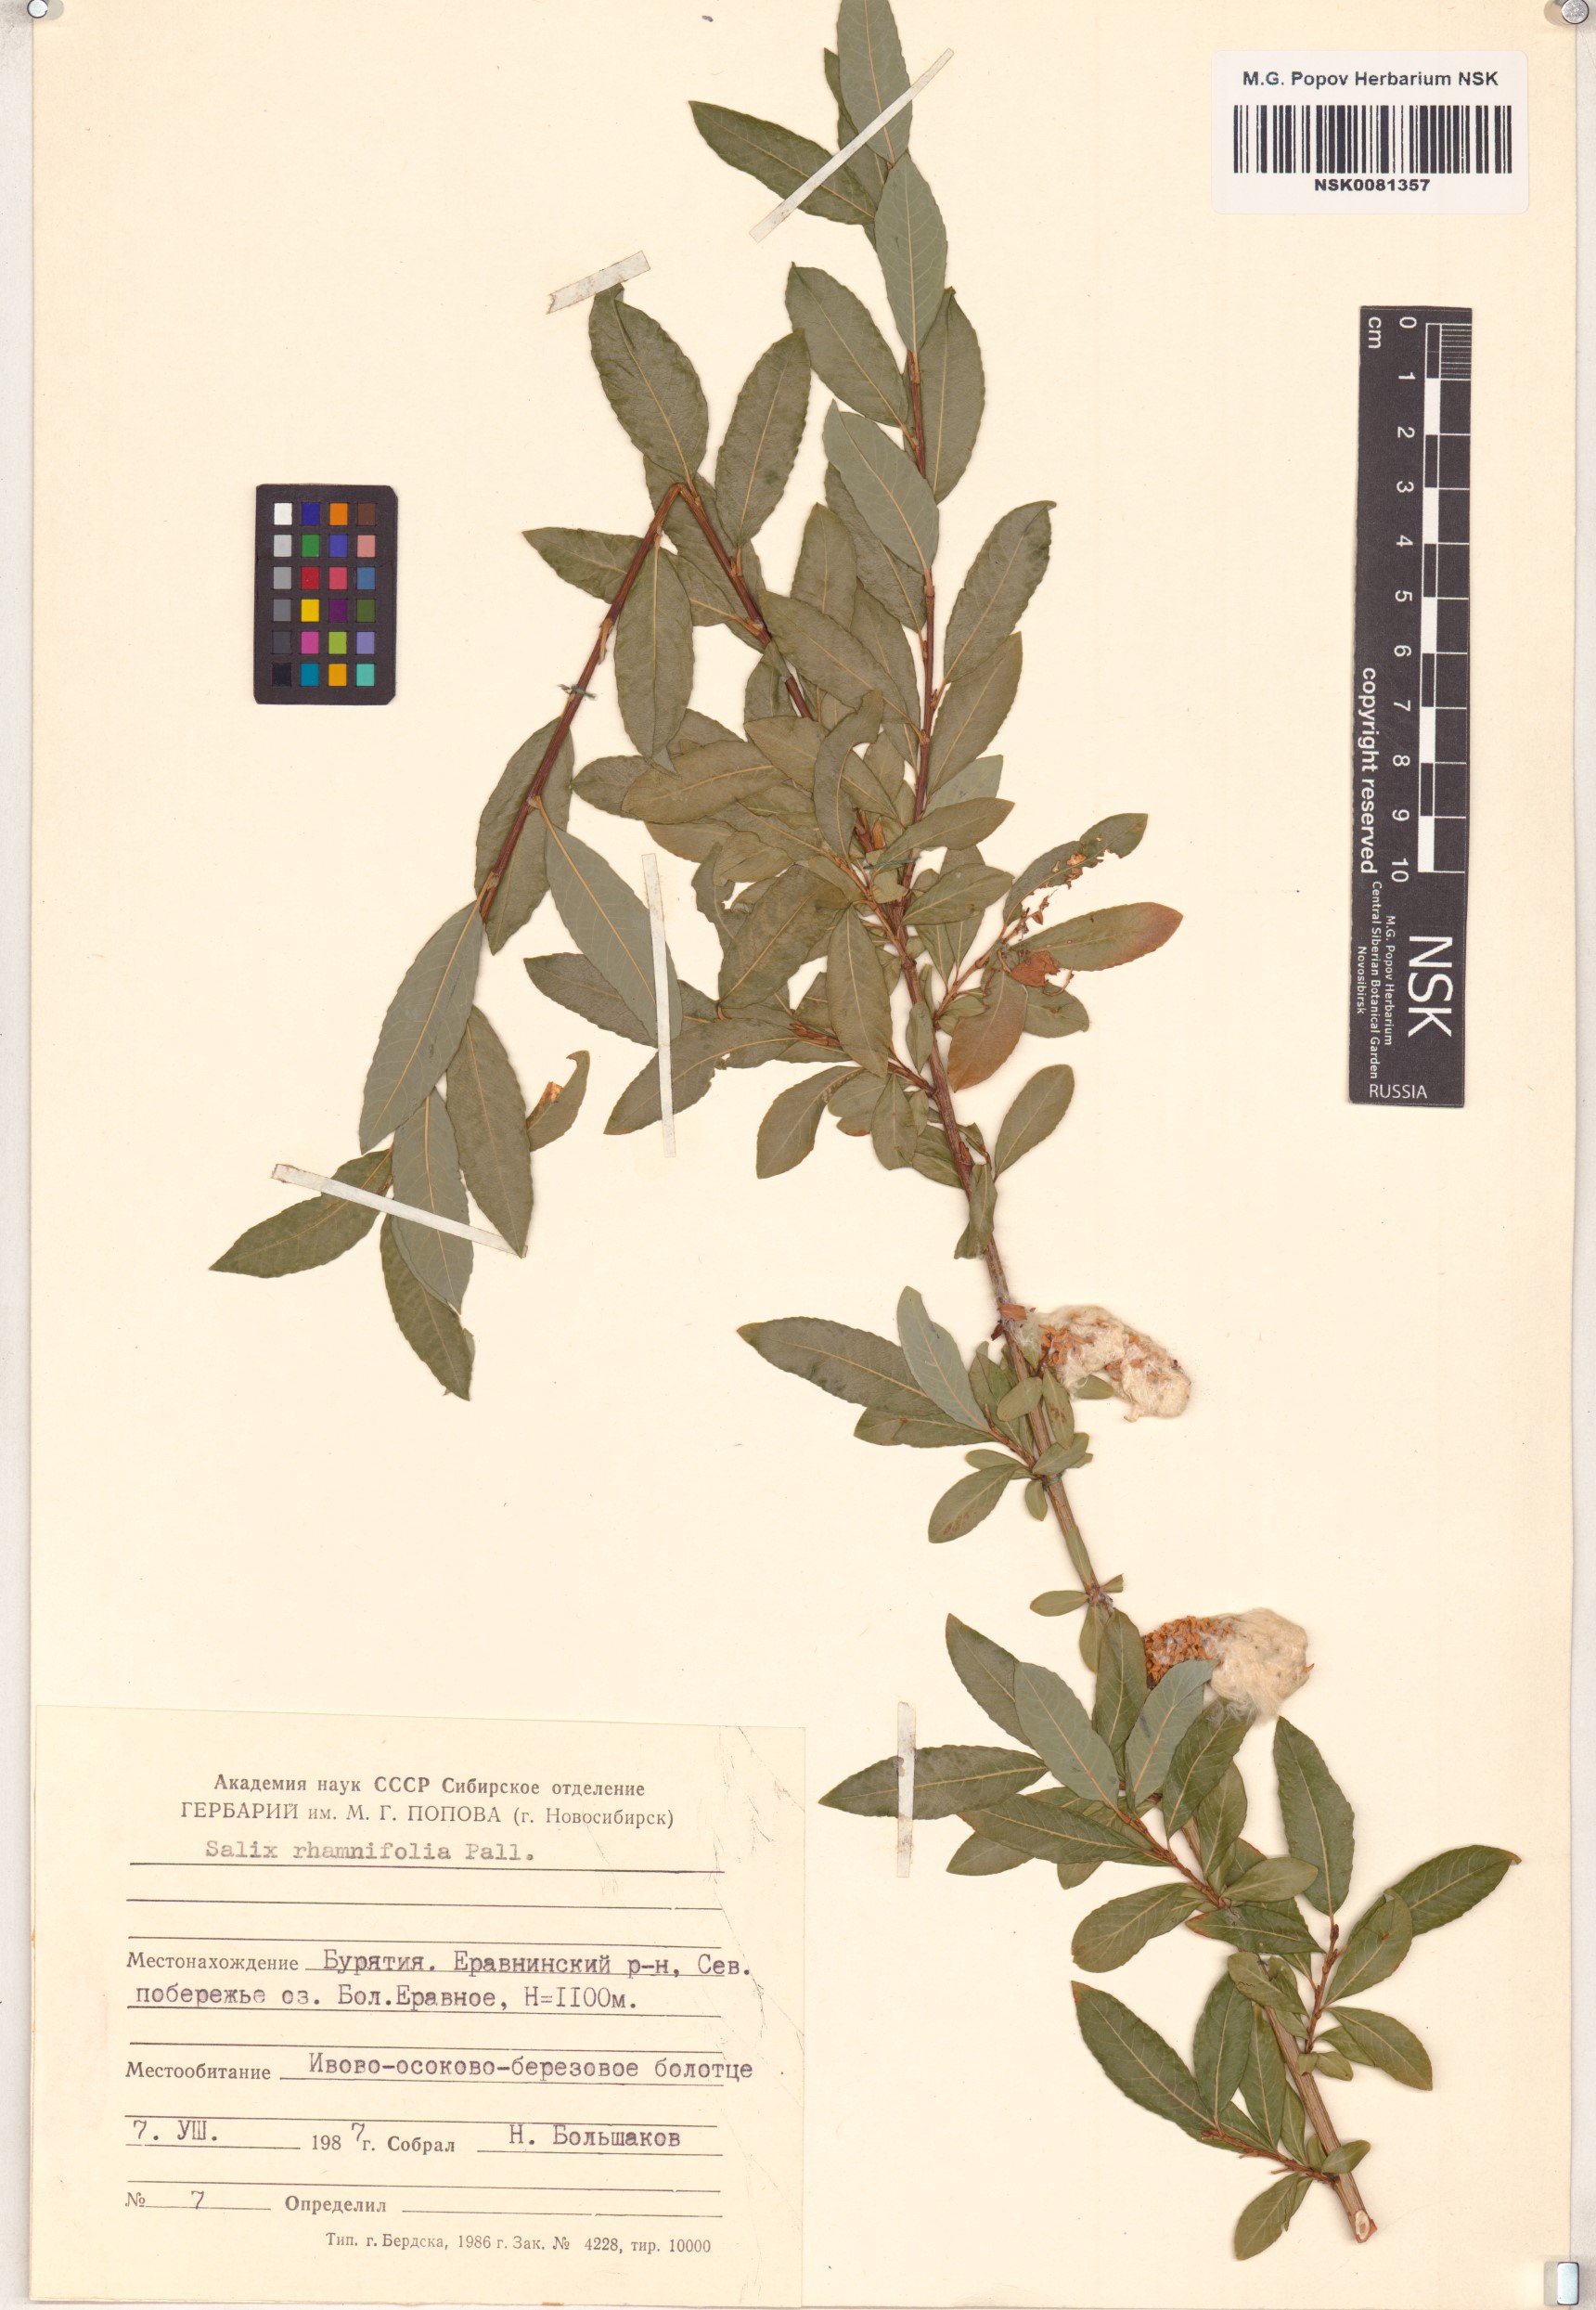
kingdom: Plantae
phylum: Tracheophyta
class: Magnoliopsida
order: Malpighiales
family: Salicaceae
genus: Salix
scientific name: Salix rhamnifolia
